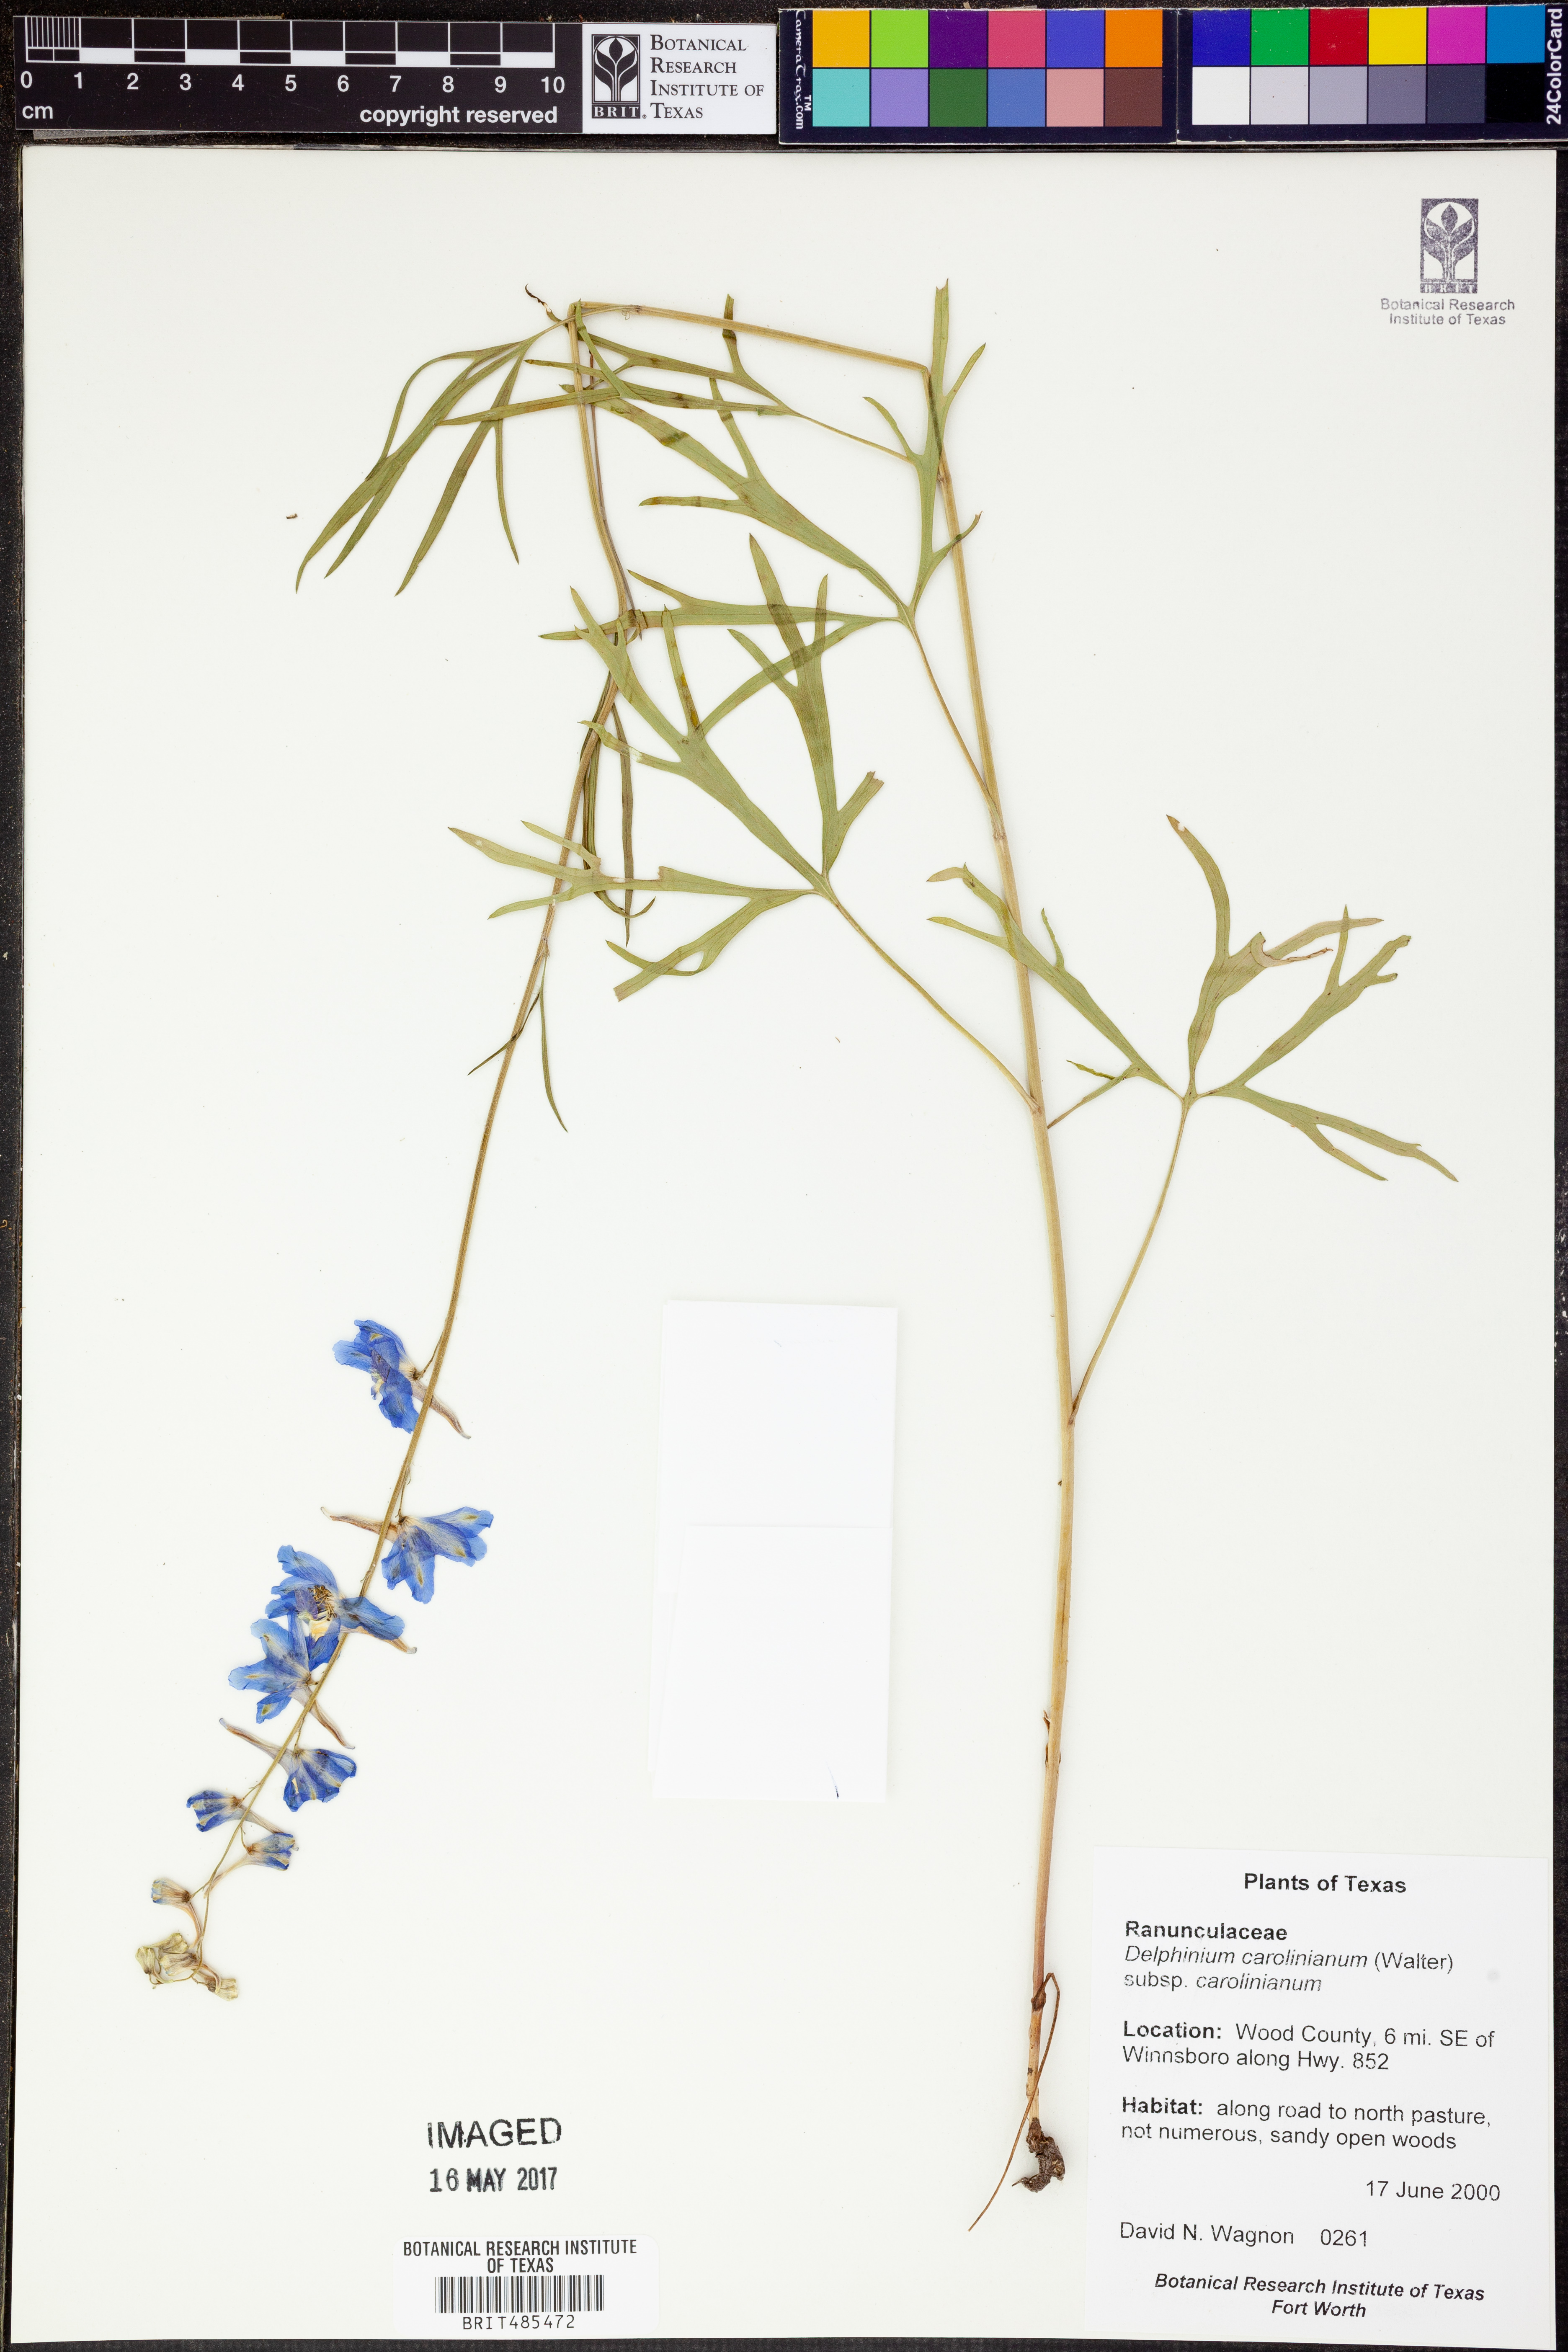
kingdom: Plantae
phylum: Tracheophyta
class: Magnoliopsida
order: Ranunculales
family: Ranunculaceae
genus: Delphinium
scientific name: Delphinium carolinianum
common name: Carolina larkspur
